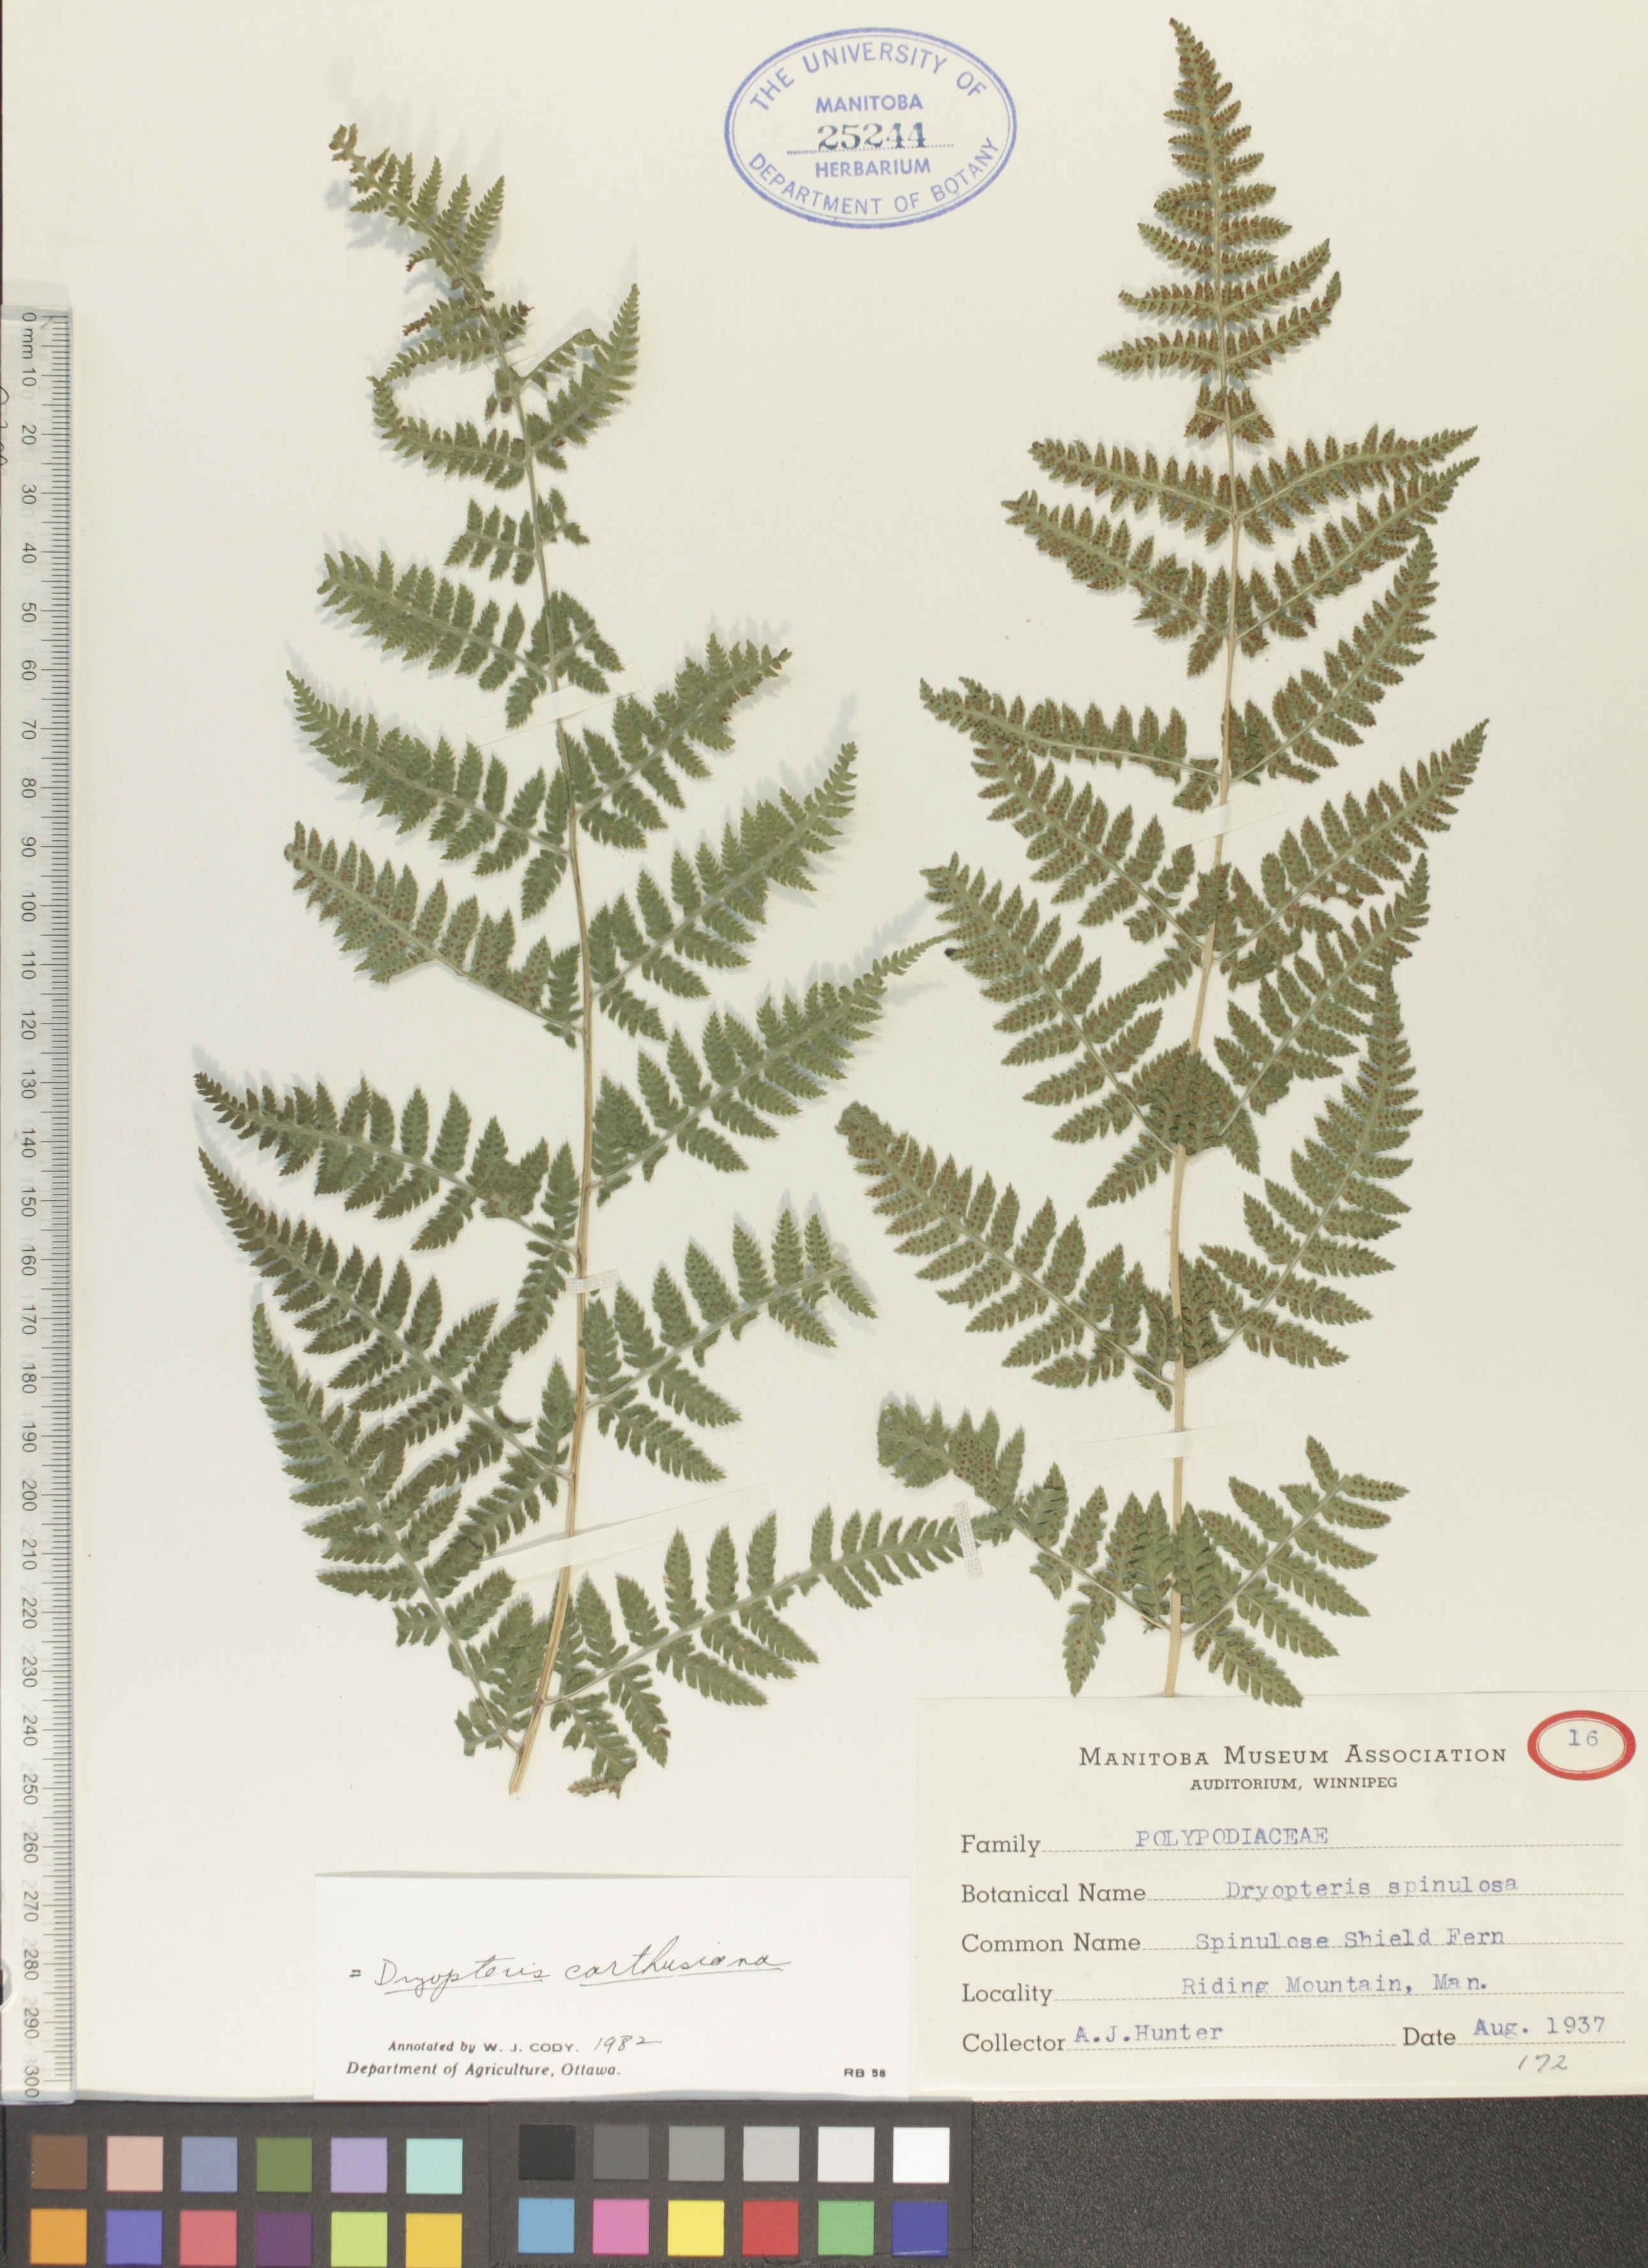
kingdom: Plantae
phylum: Tracheophyta
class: Polypodiopsida
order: Polypodiales
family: Dryopteridaceae
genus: Dryopteris
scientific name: Dryopteris carthusiana
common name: Narrow buckler-fern
